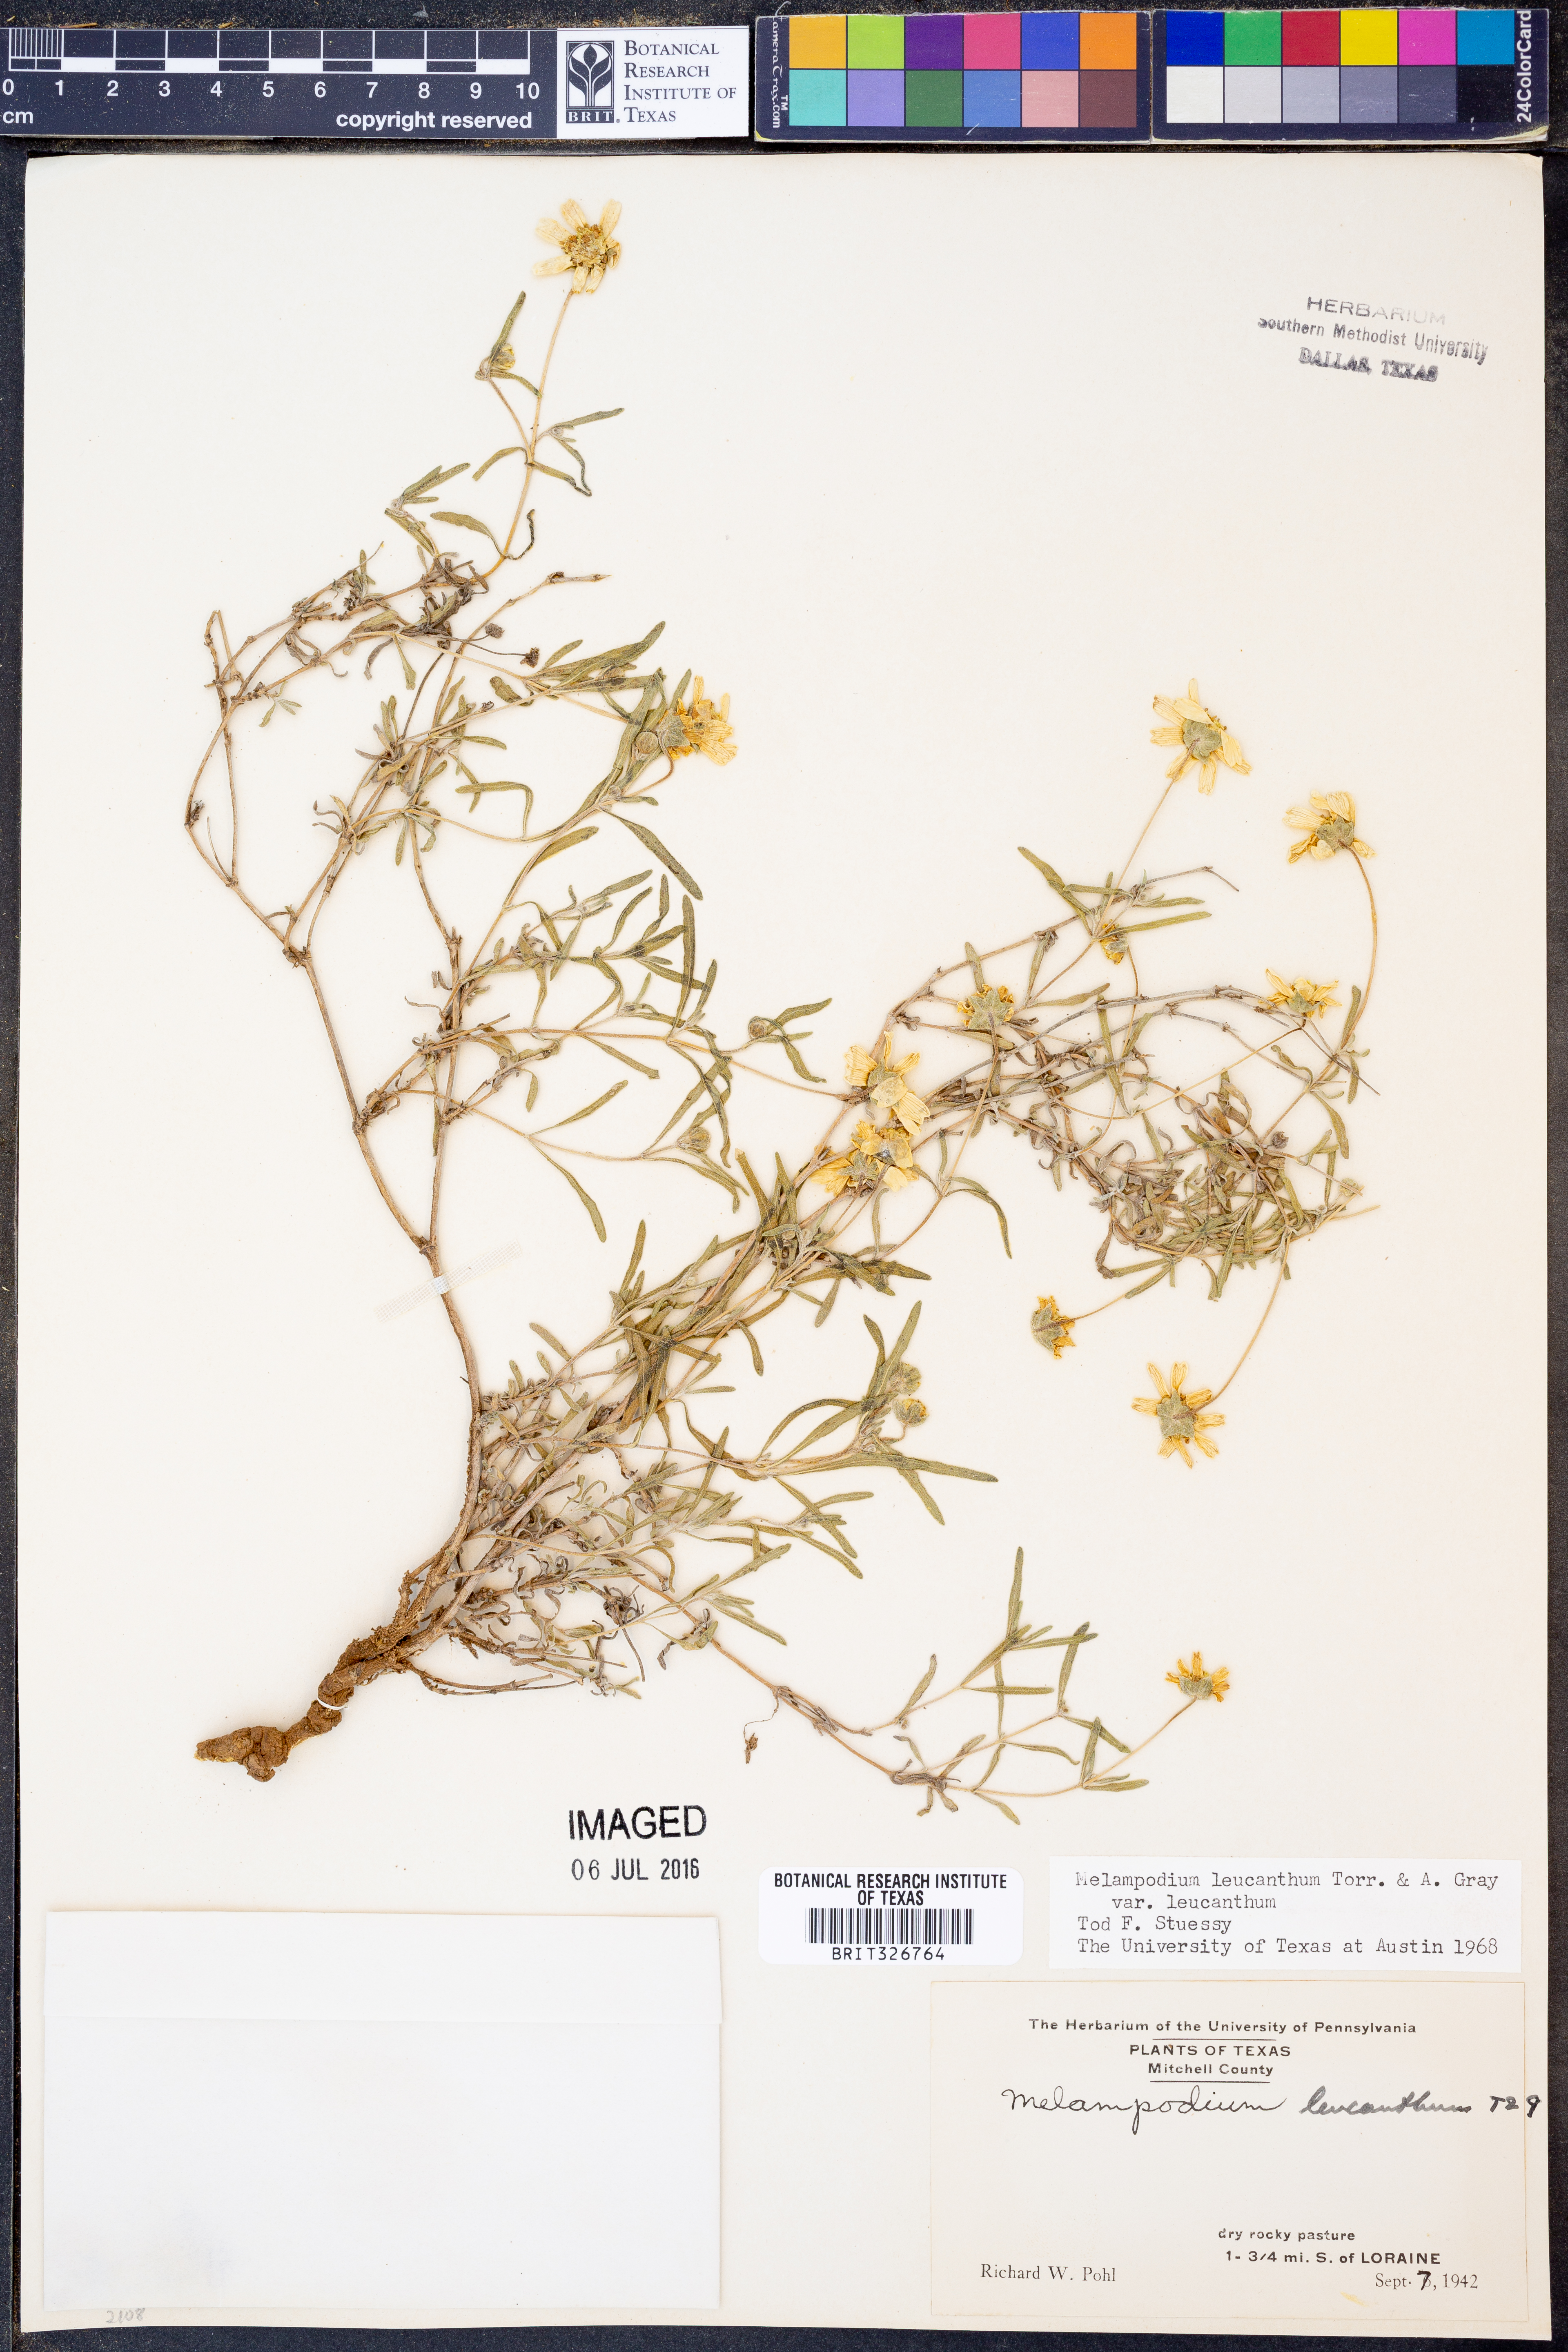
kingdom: Plantae
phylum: Tracheophyta
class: Magnoliopsida
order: Asterales
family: Asteraceae
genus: Melampodium
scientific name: Melampodium leucanthum
